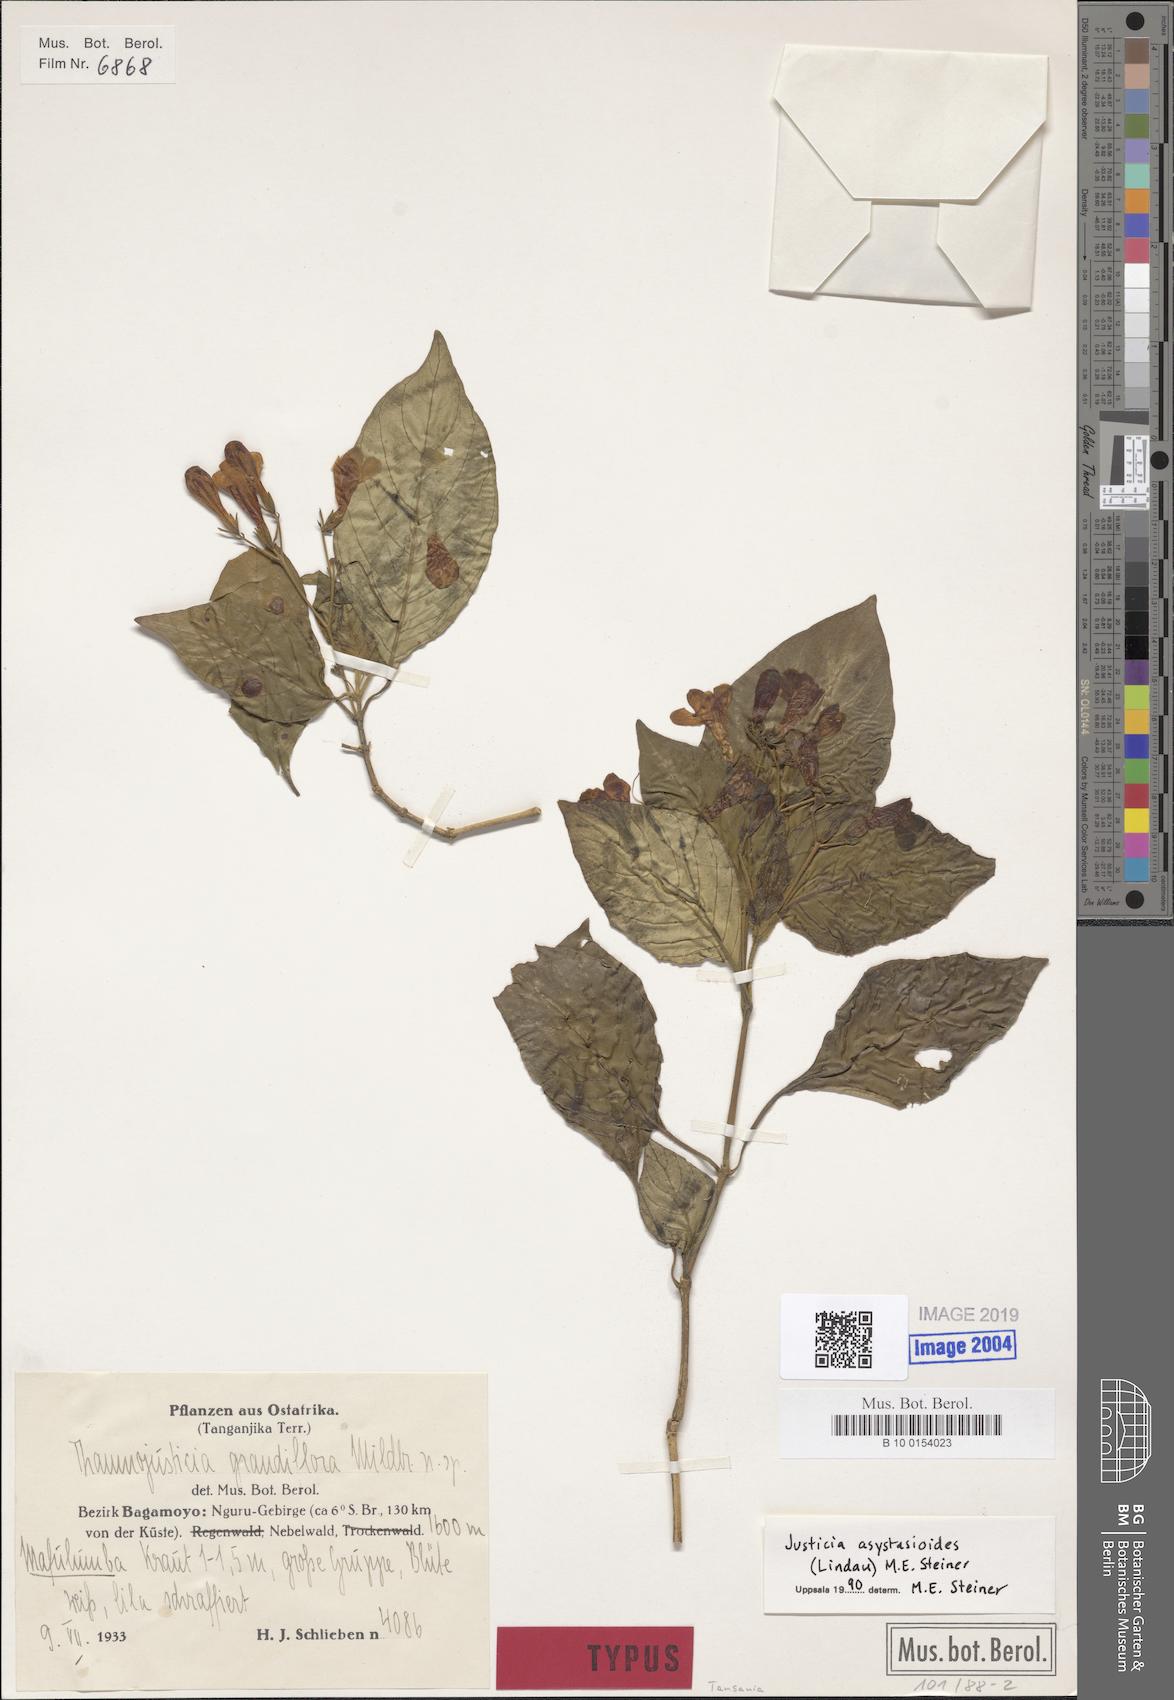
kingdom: Plantae
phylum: Tracheophyta
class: Magnoliopsida
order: Lamiales
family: Acanthaceae
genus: Justicia
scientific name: Justicia asystasioides
